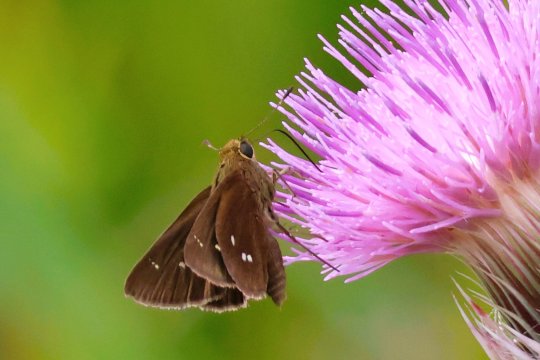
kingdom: Animalia
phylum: Arthropoda
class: Insecta
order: Lepidoptera
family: Hesperiidae
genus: Oligoria
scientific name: Oligoria maculata
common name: Twin-spot Skipper
